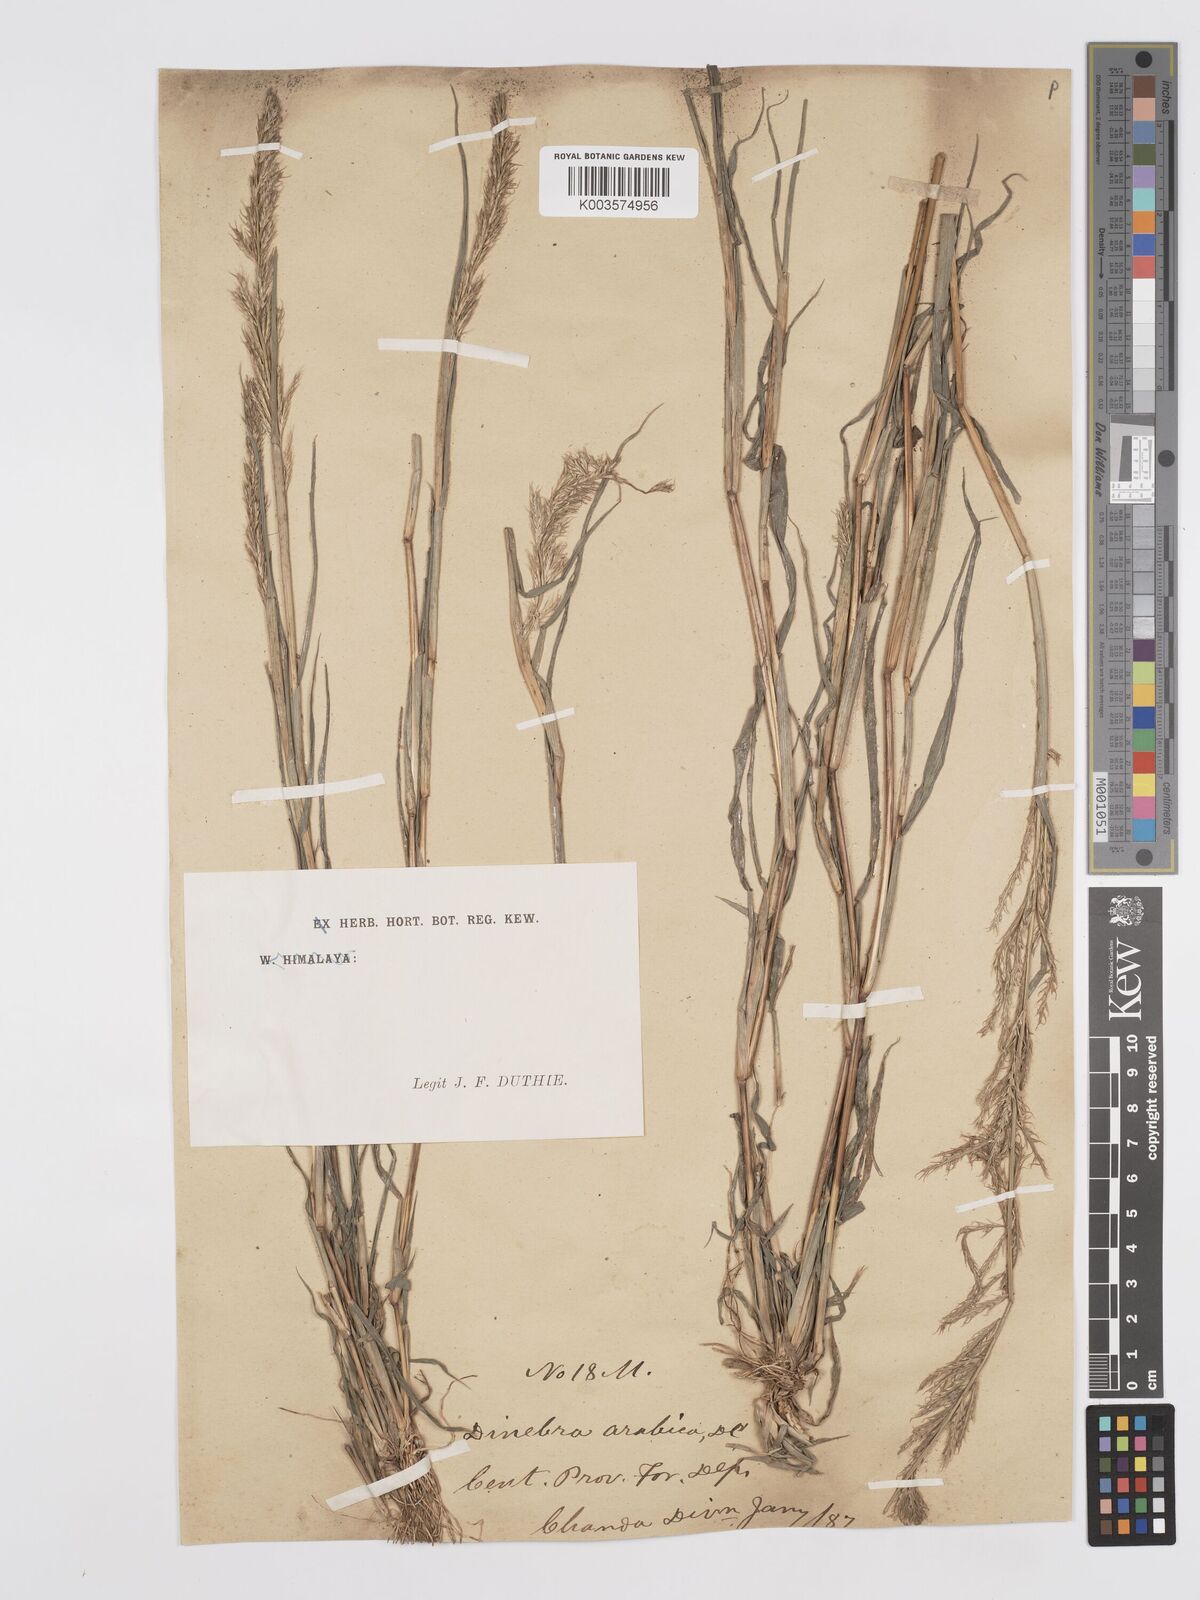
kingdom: Plantae
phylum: Tracheophyta
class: Liliopsida
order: Poales
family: Poaceae
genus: Dinebra
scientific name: Dinebra retroflexa
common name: Viper grass
